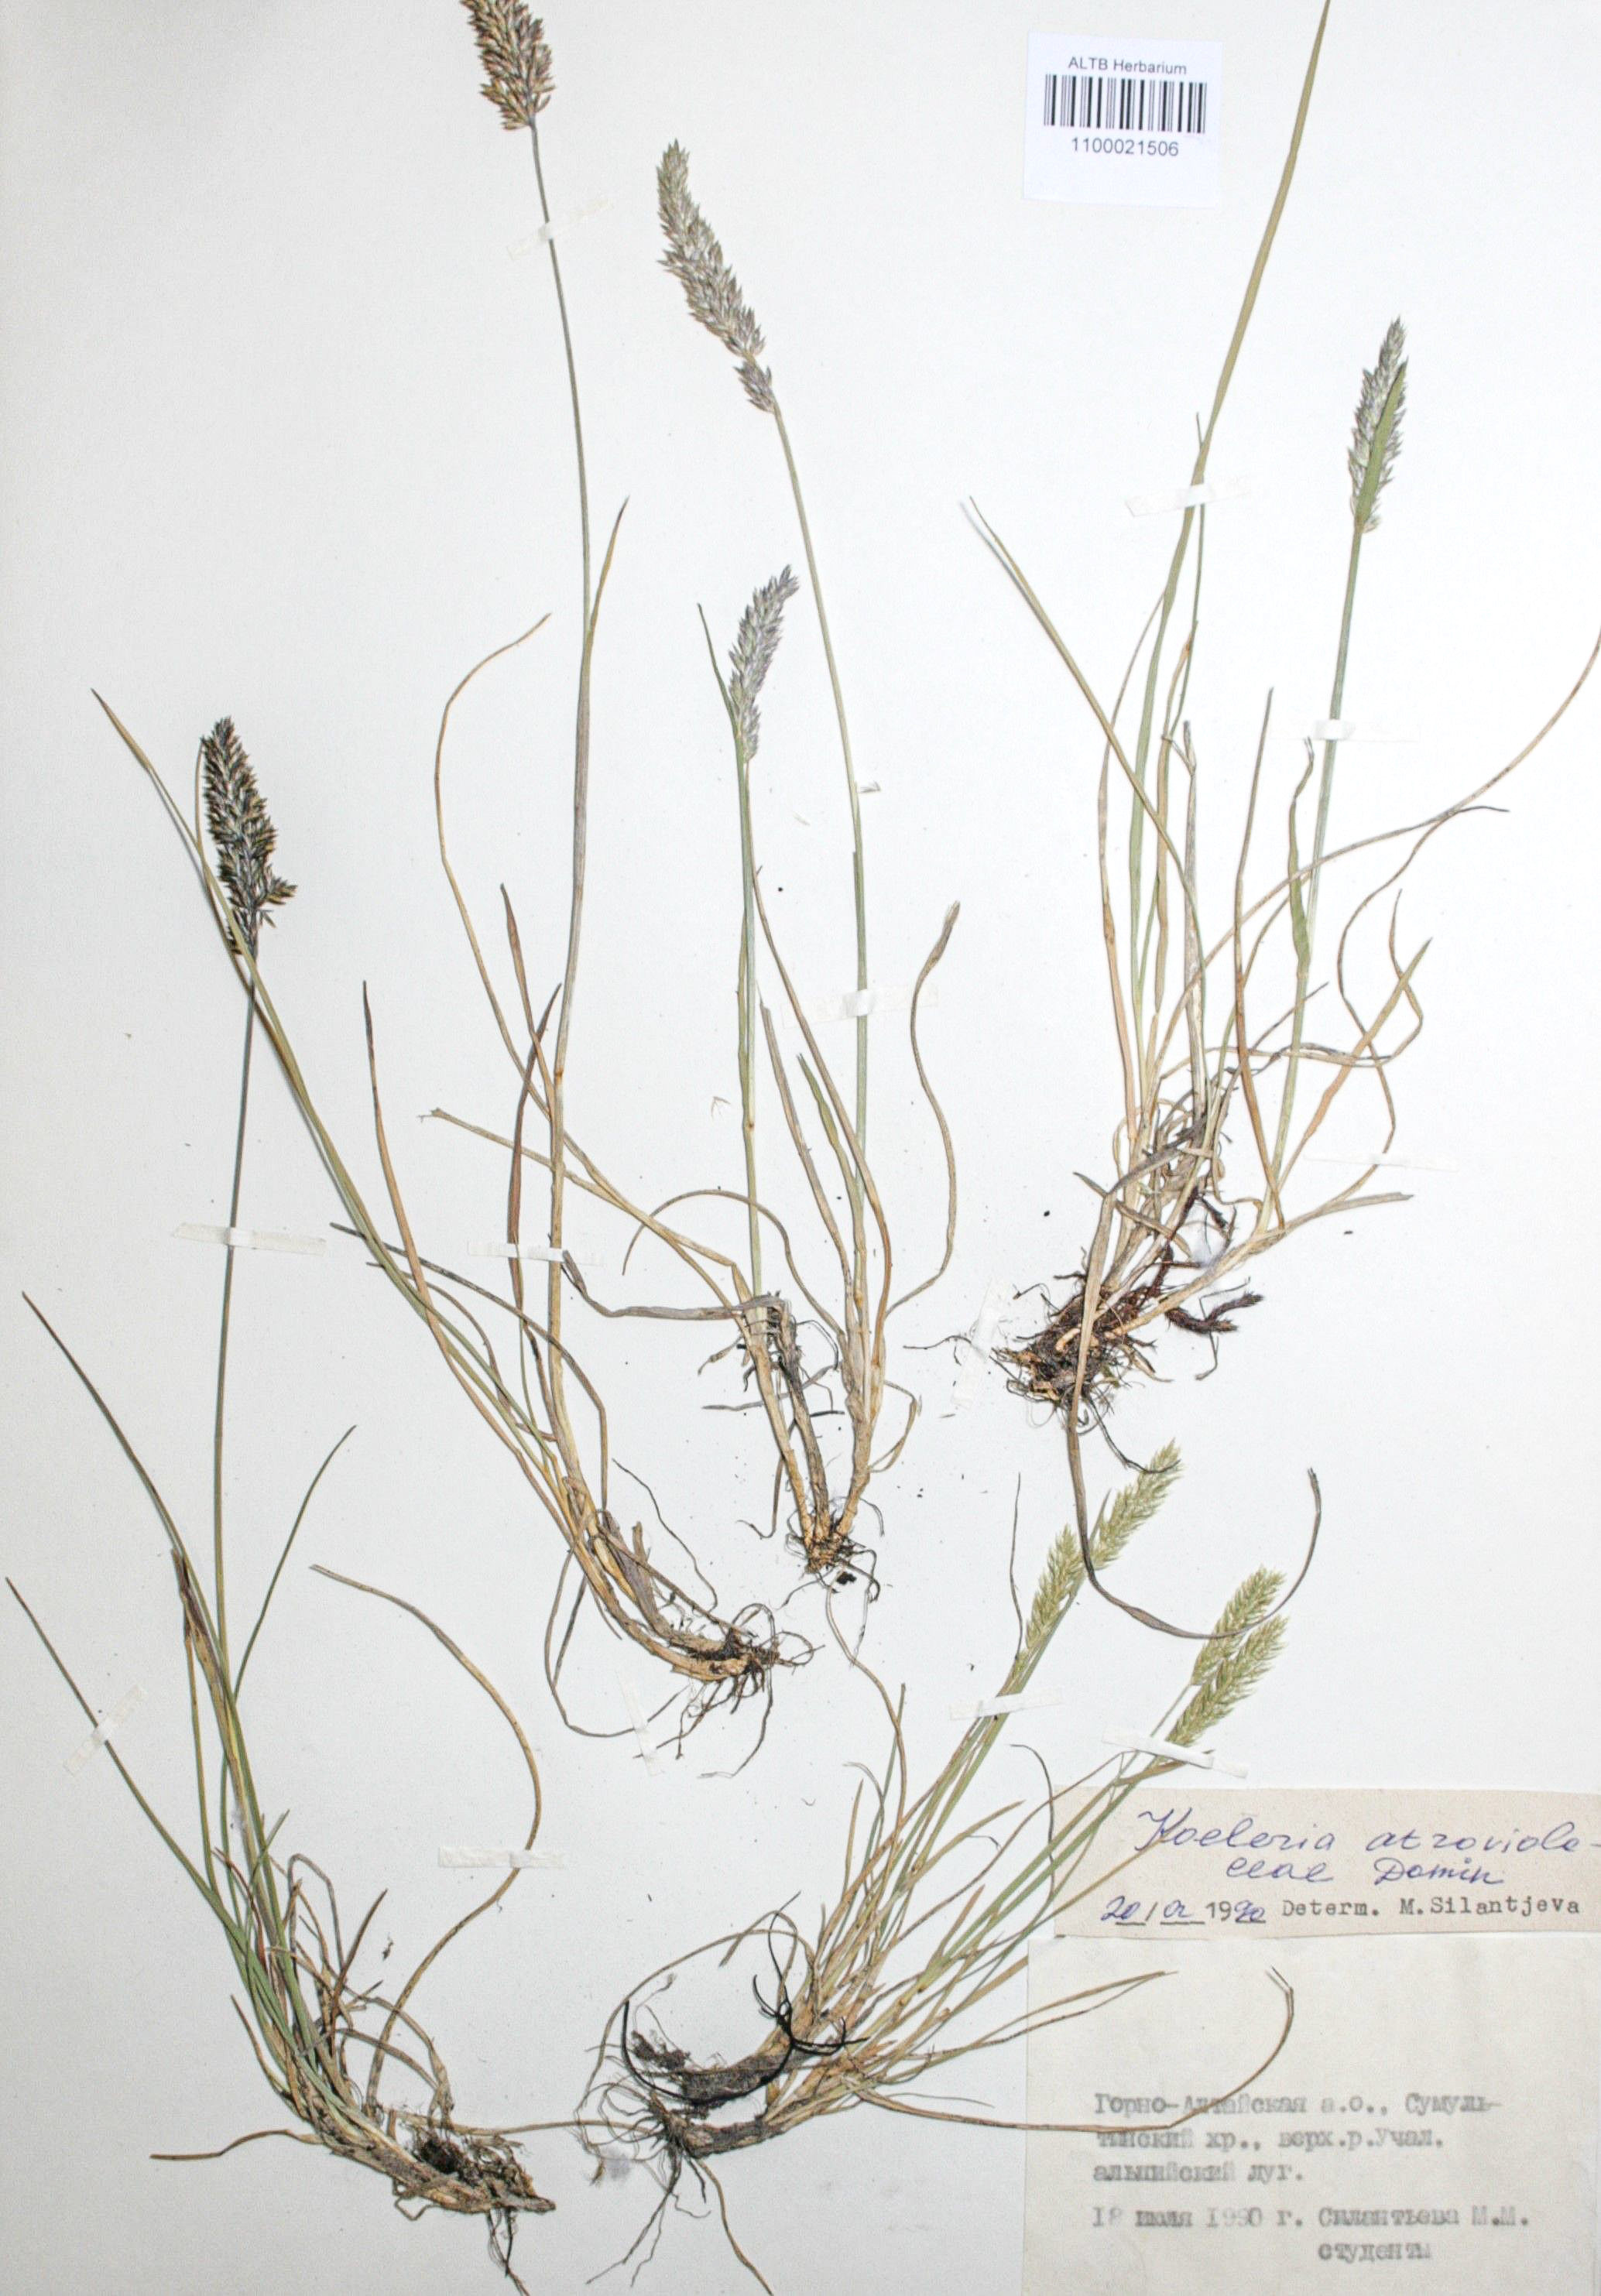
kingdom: Plantae
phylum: Tracheophyta
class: Liliopsida
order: Poales
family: Poaceae
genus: Koeleria
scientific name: Koeleria asiatica
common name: Eurasian junegrass
